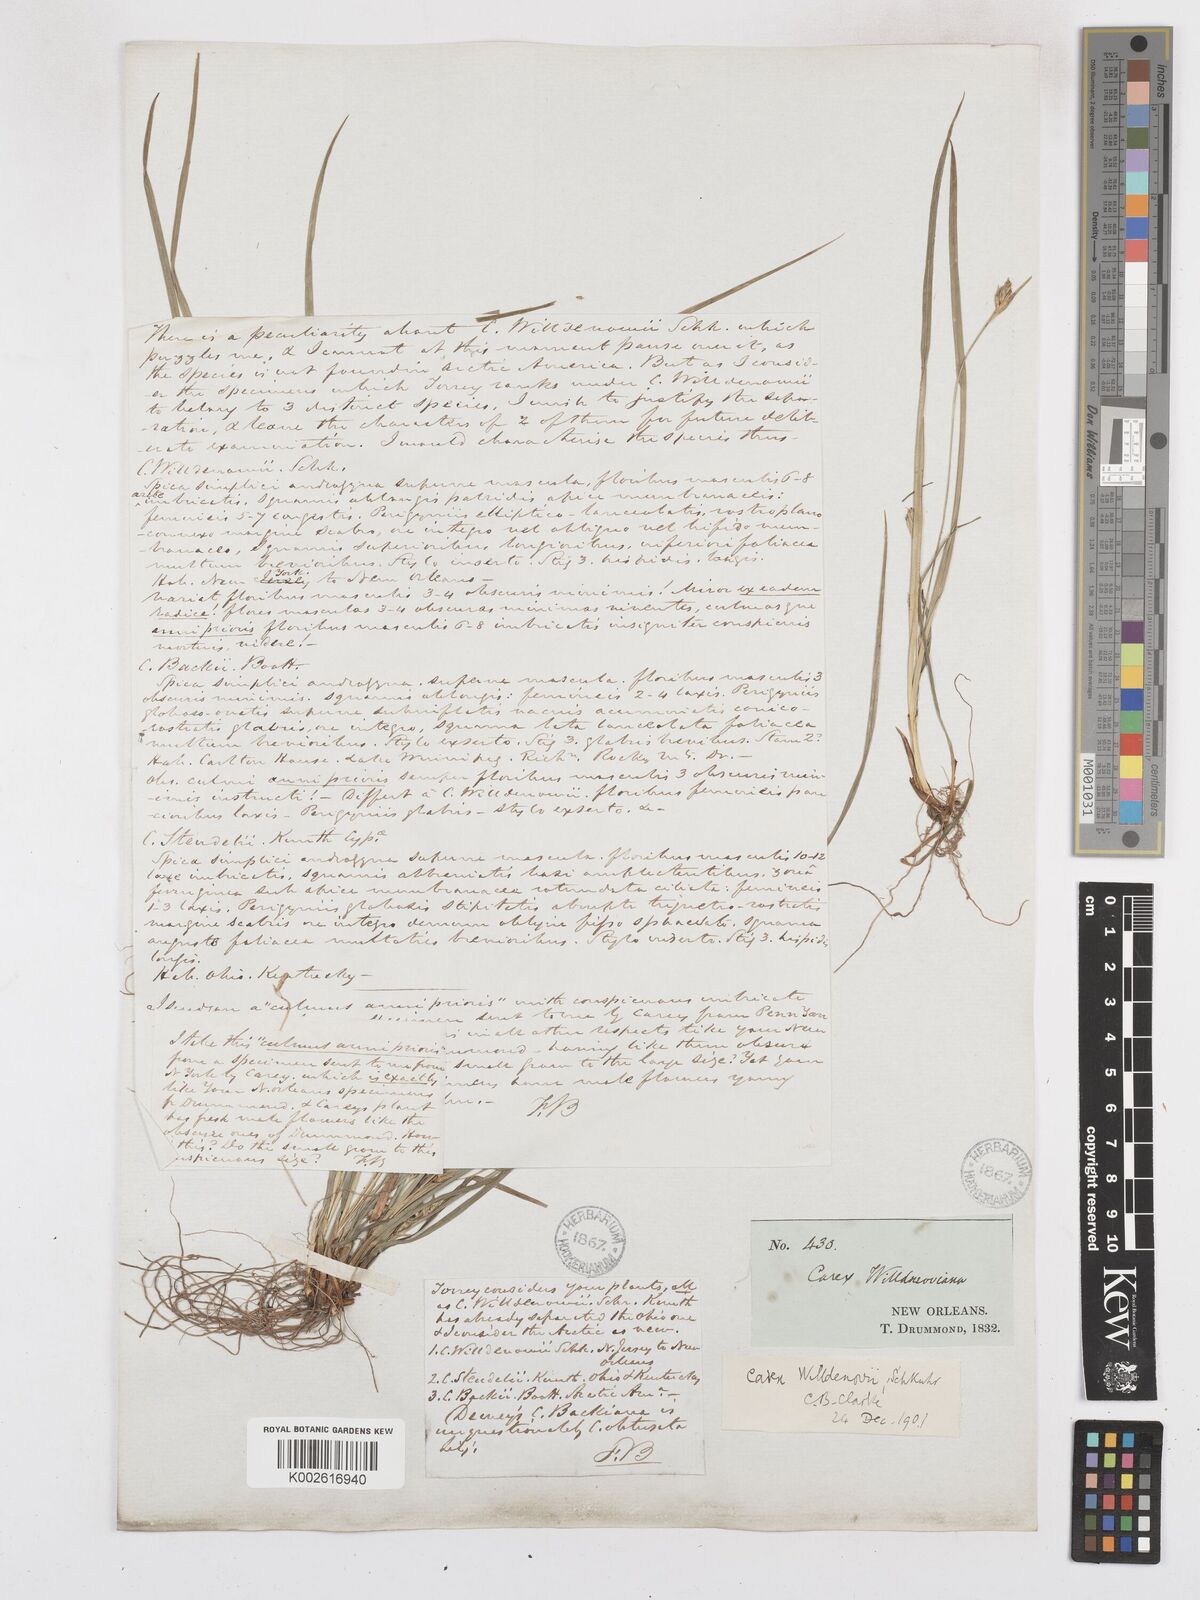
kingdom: Plantae
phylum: Tracheophyta
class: Liliopsida
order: Poales
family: Cyperaceae
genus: Carex
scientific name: Carex willdenowii
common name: Willdenow's sedge
